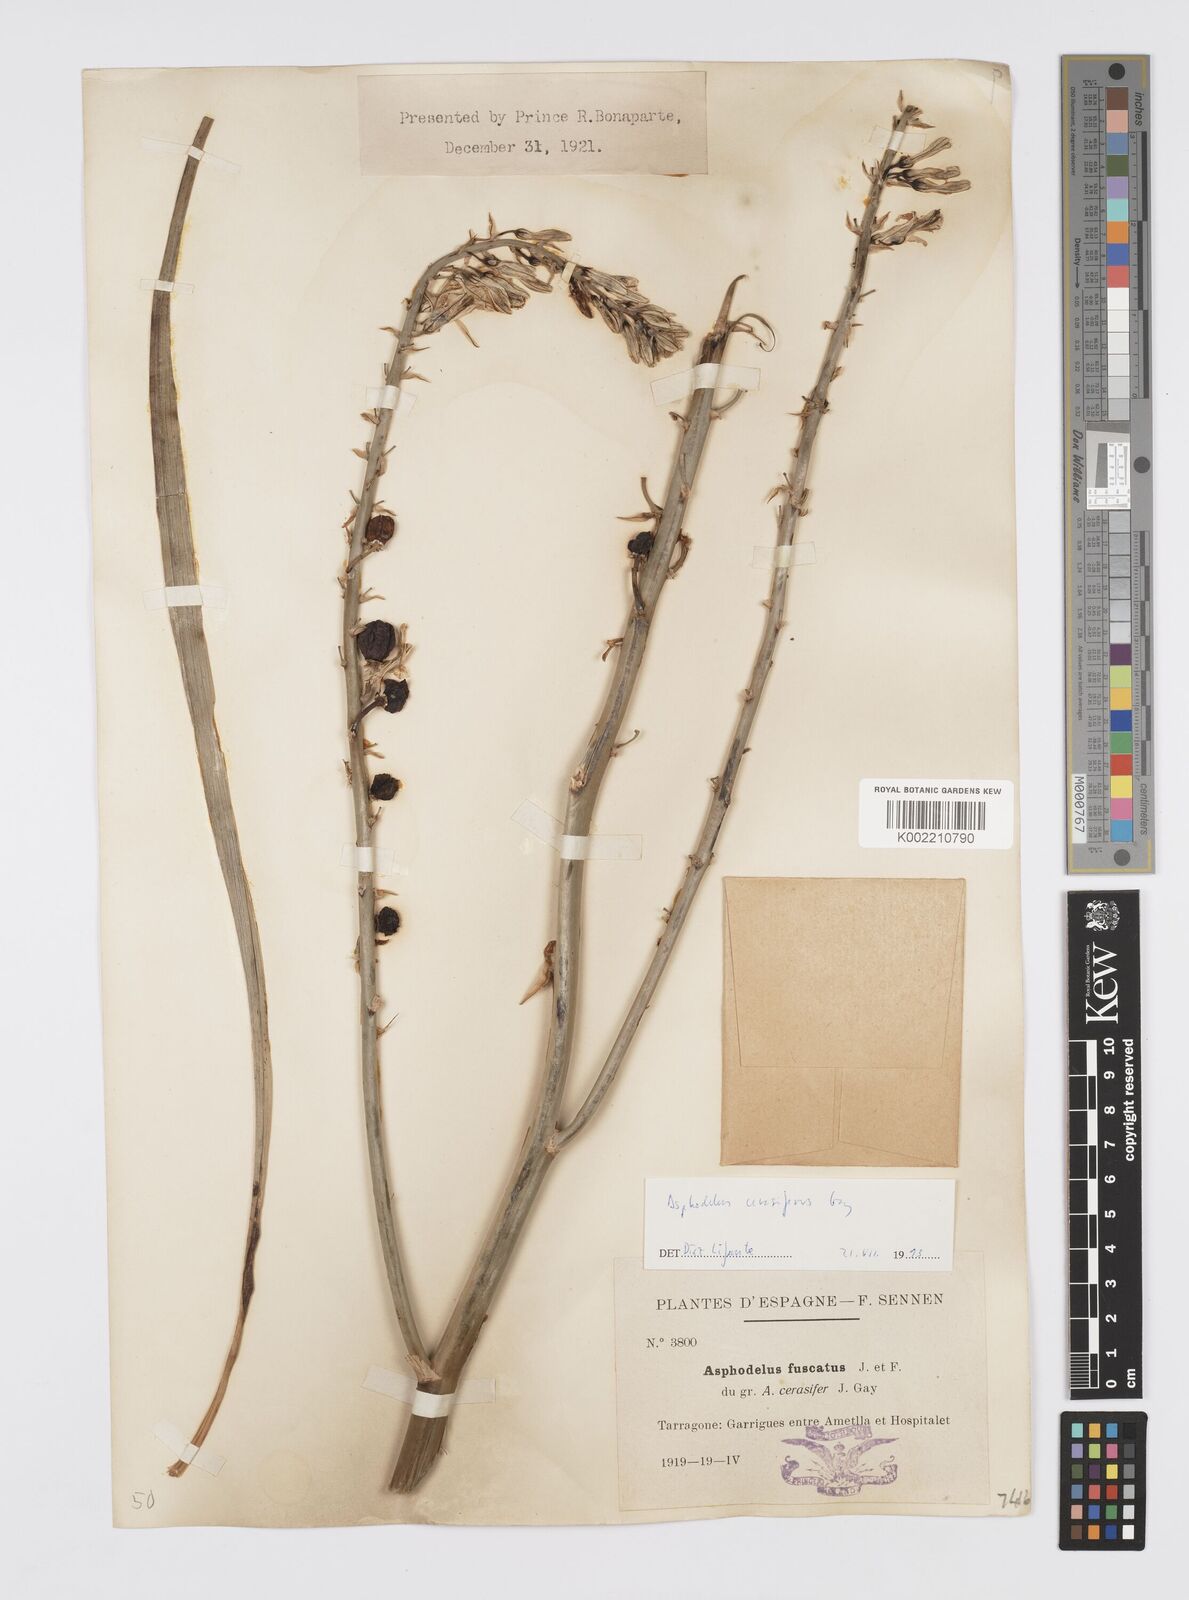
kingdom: Plantae
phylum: Tracheophyta
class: Liliopsida
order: Asparagales
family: Asphodelaceae
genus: Asphodelus
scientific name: Asphodelus cerasifer
